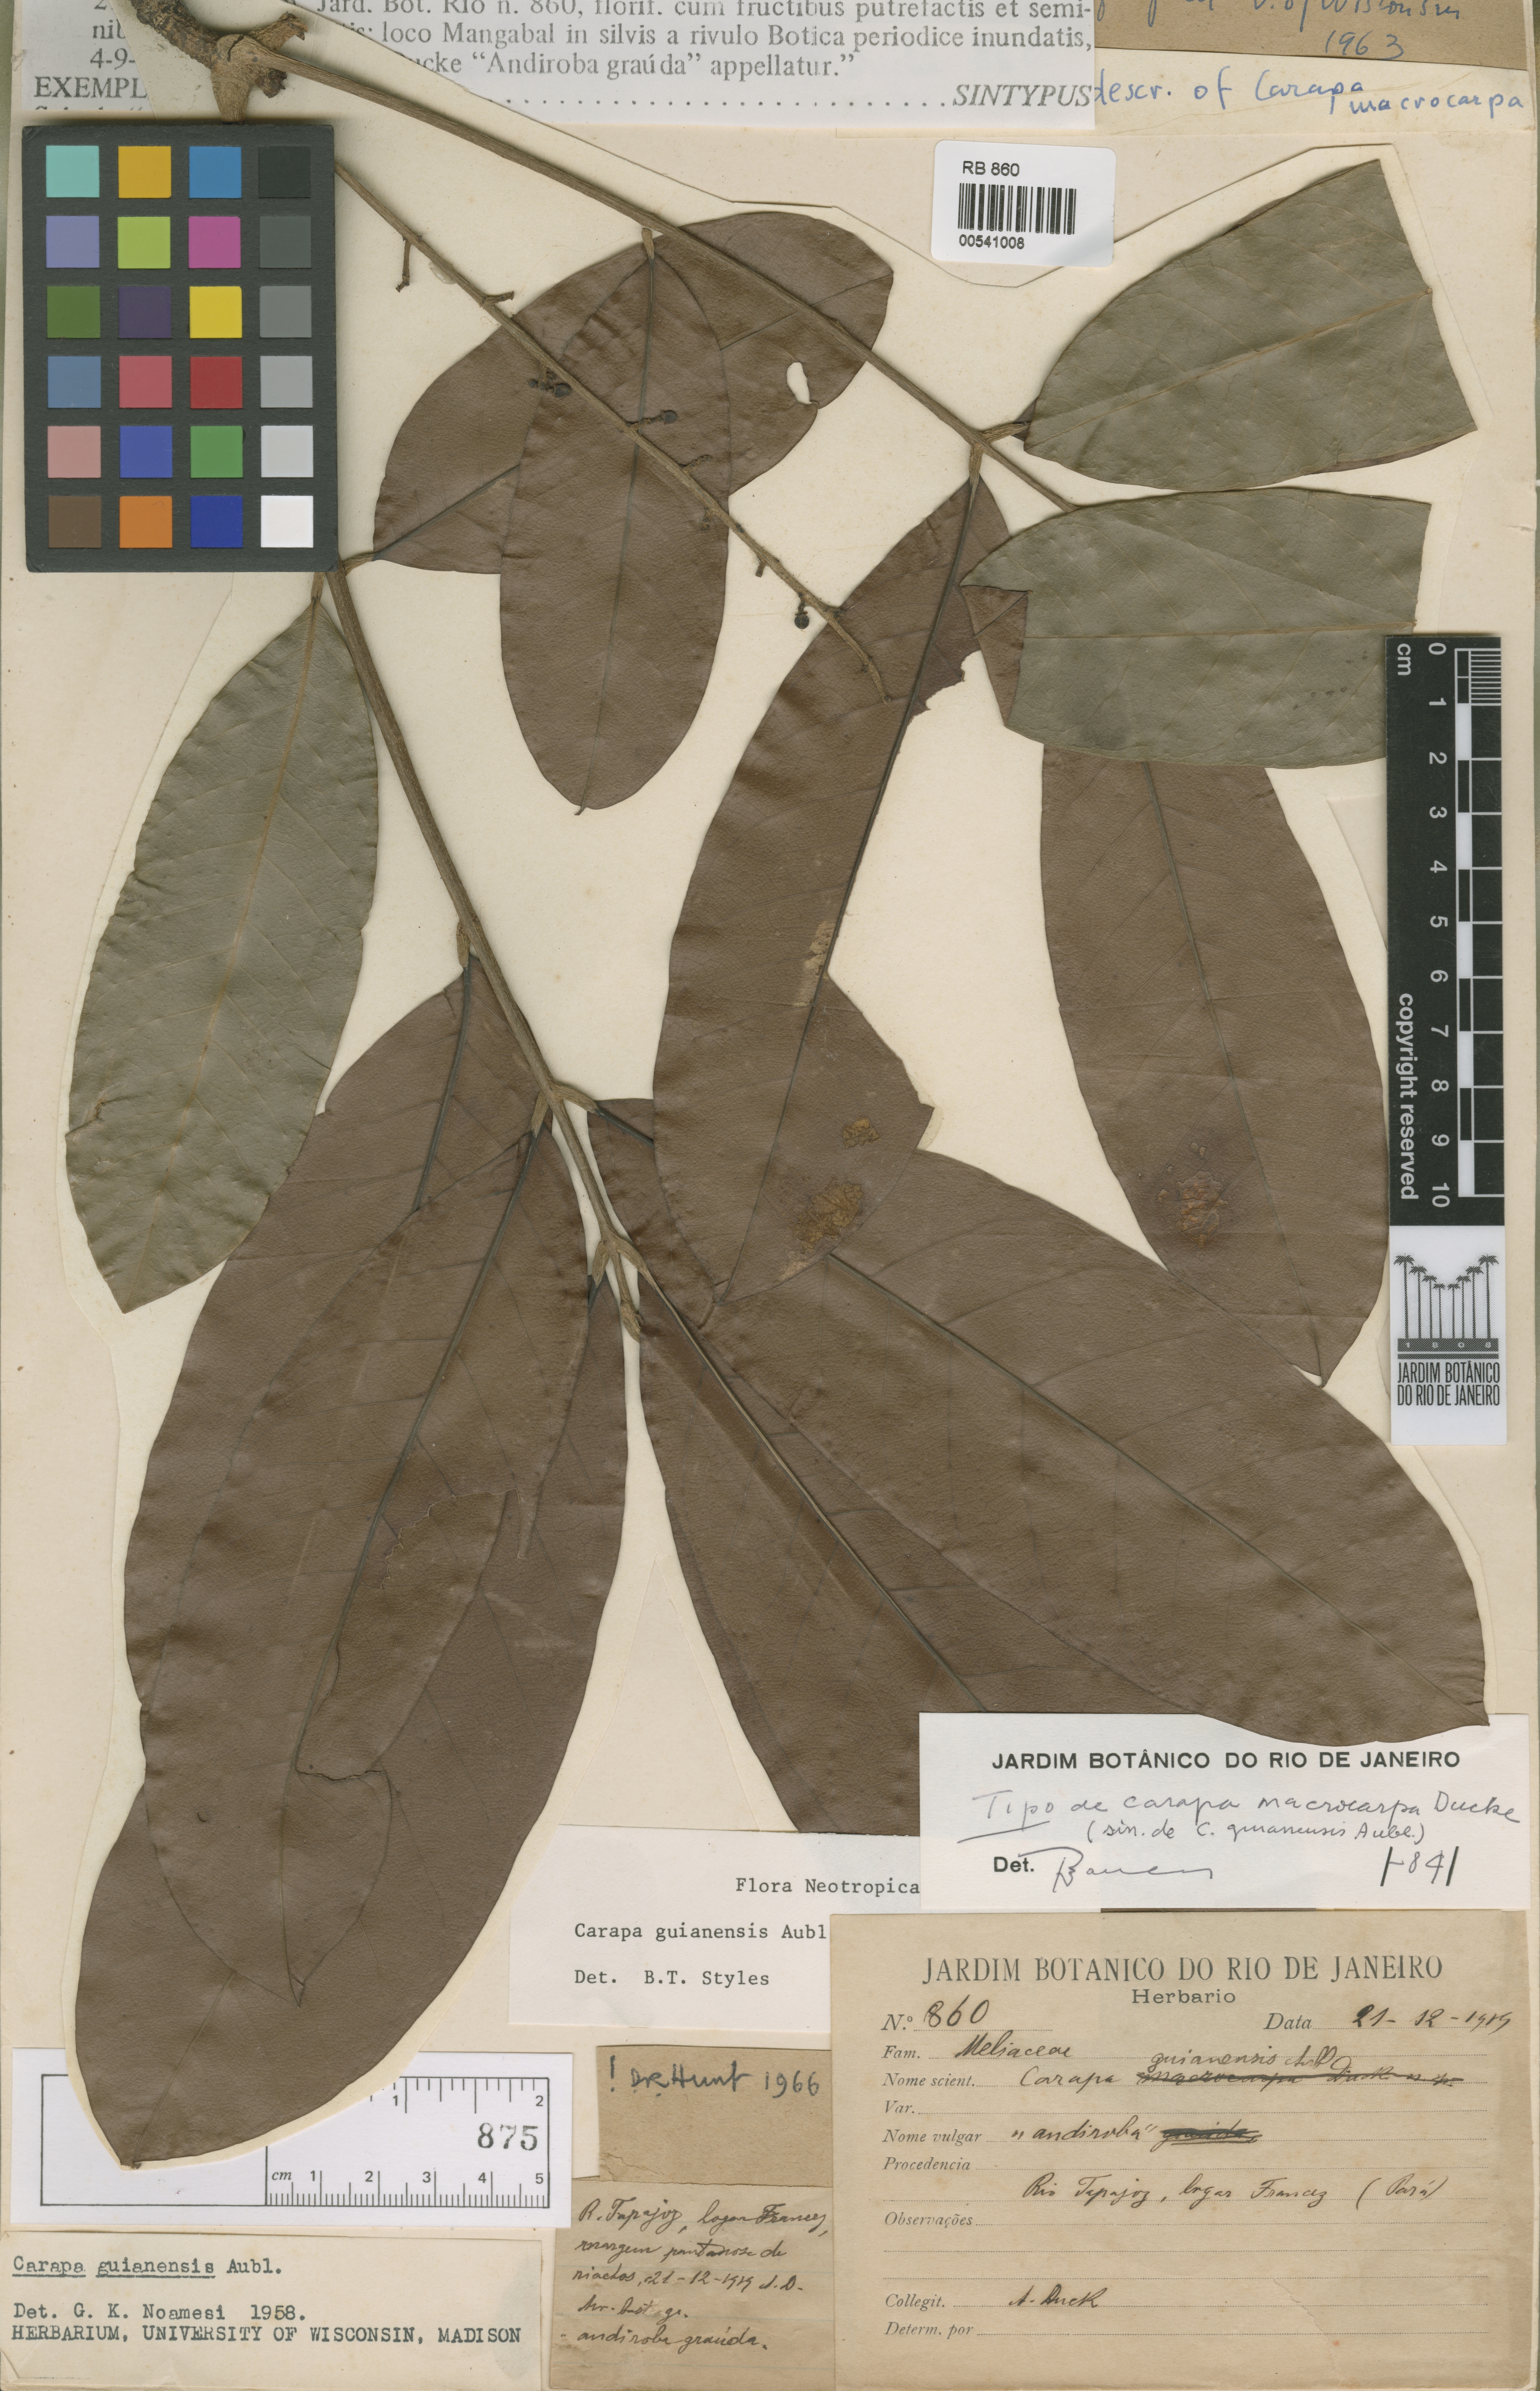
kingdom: Plantae
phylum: Tracheophyta
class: Magnoliopsida
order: Sapindales
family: Meliaceae
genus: Carapa
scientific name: Carapa macrocarpa
